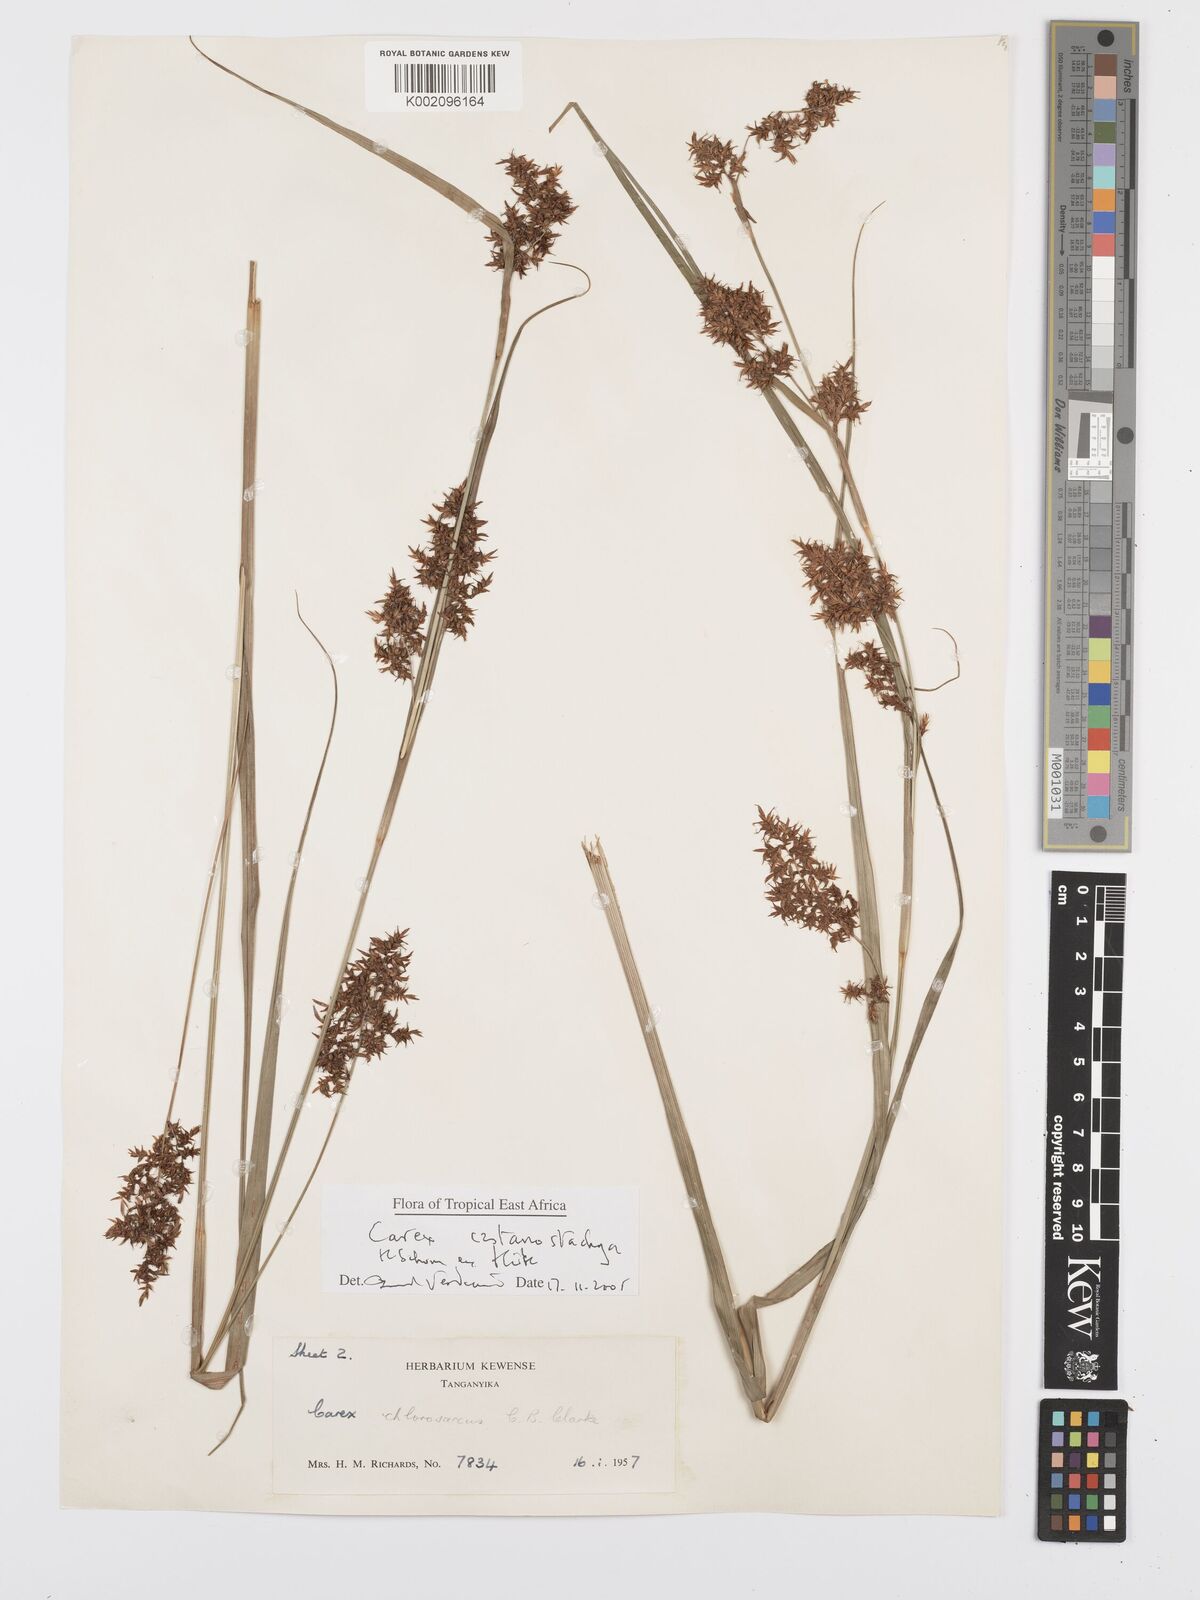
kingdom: Plantae
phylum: Tracheophyta
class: Liliopsida
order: Poales
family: Cyperaceae
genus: Carex
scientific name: Carex castanostachya
